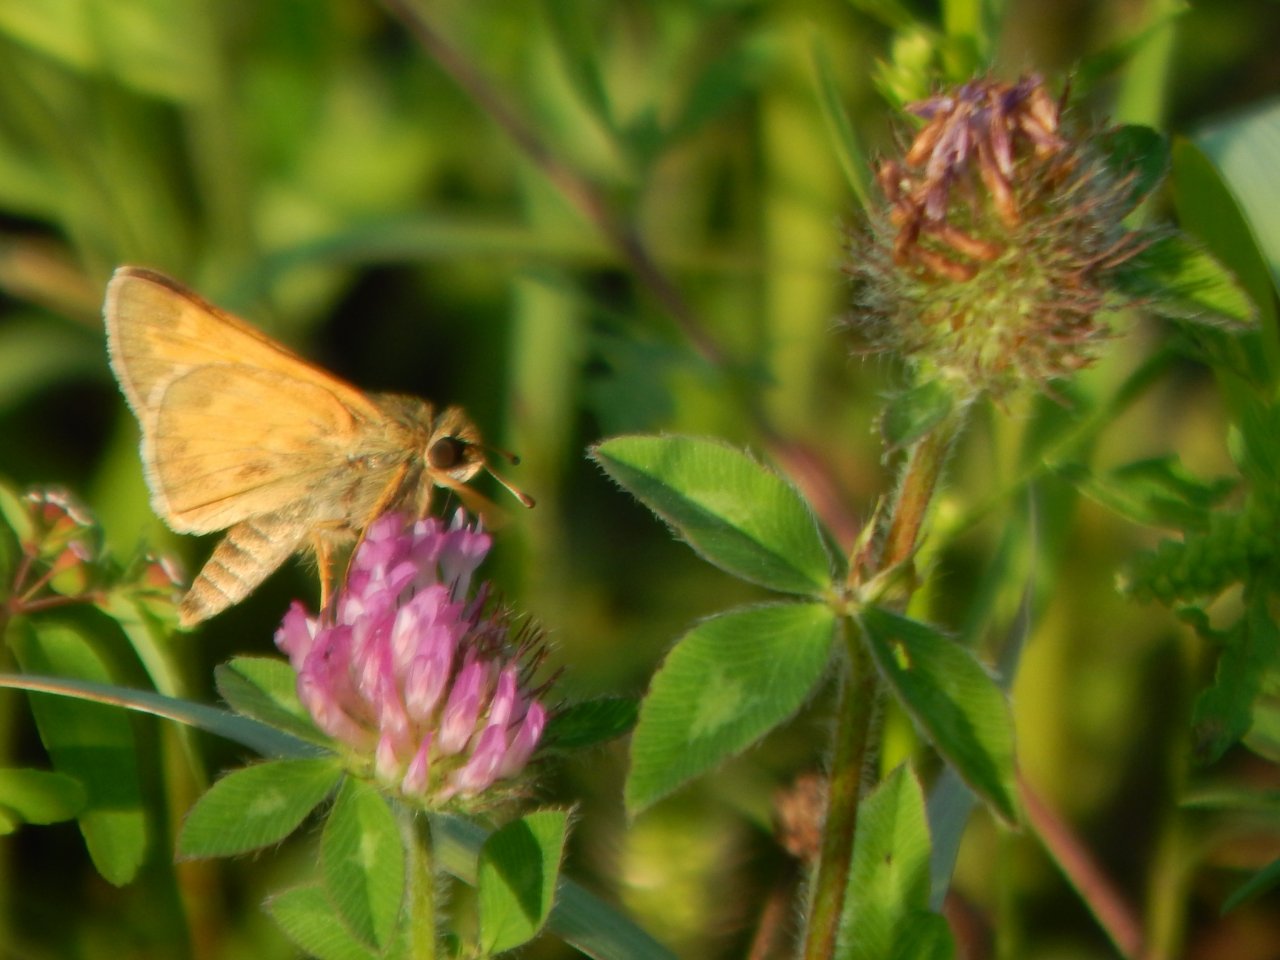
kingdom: Animalia
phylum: Arthropoda
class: Insecta
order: Lepidoptera
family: Hesperiidae
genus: Ancyloxypha
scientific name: Ancyloxypha numitor
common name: Least Skipper
